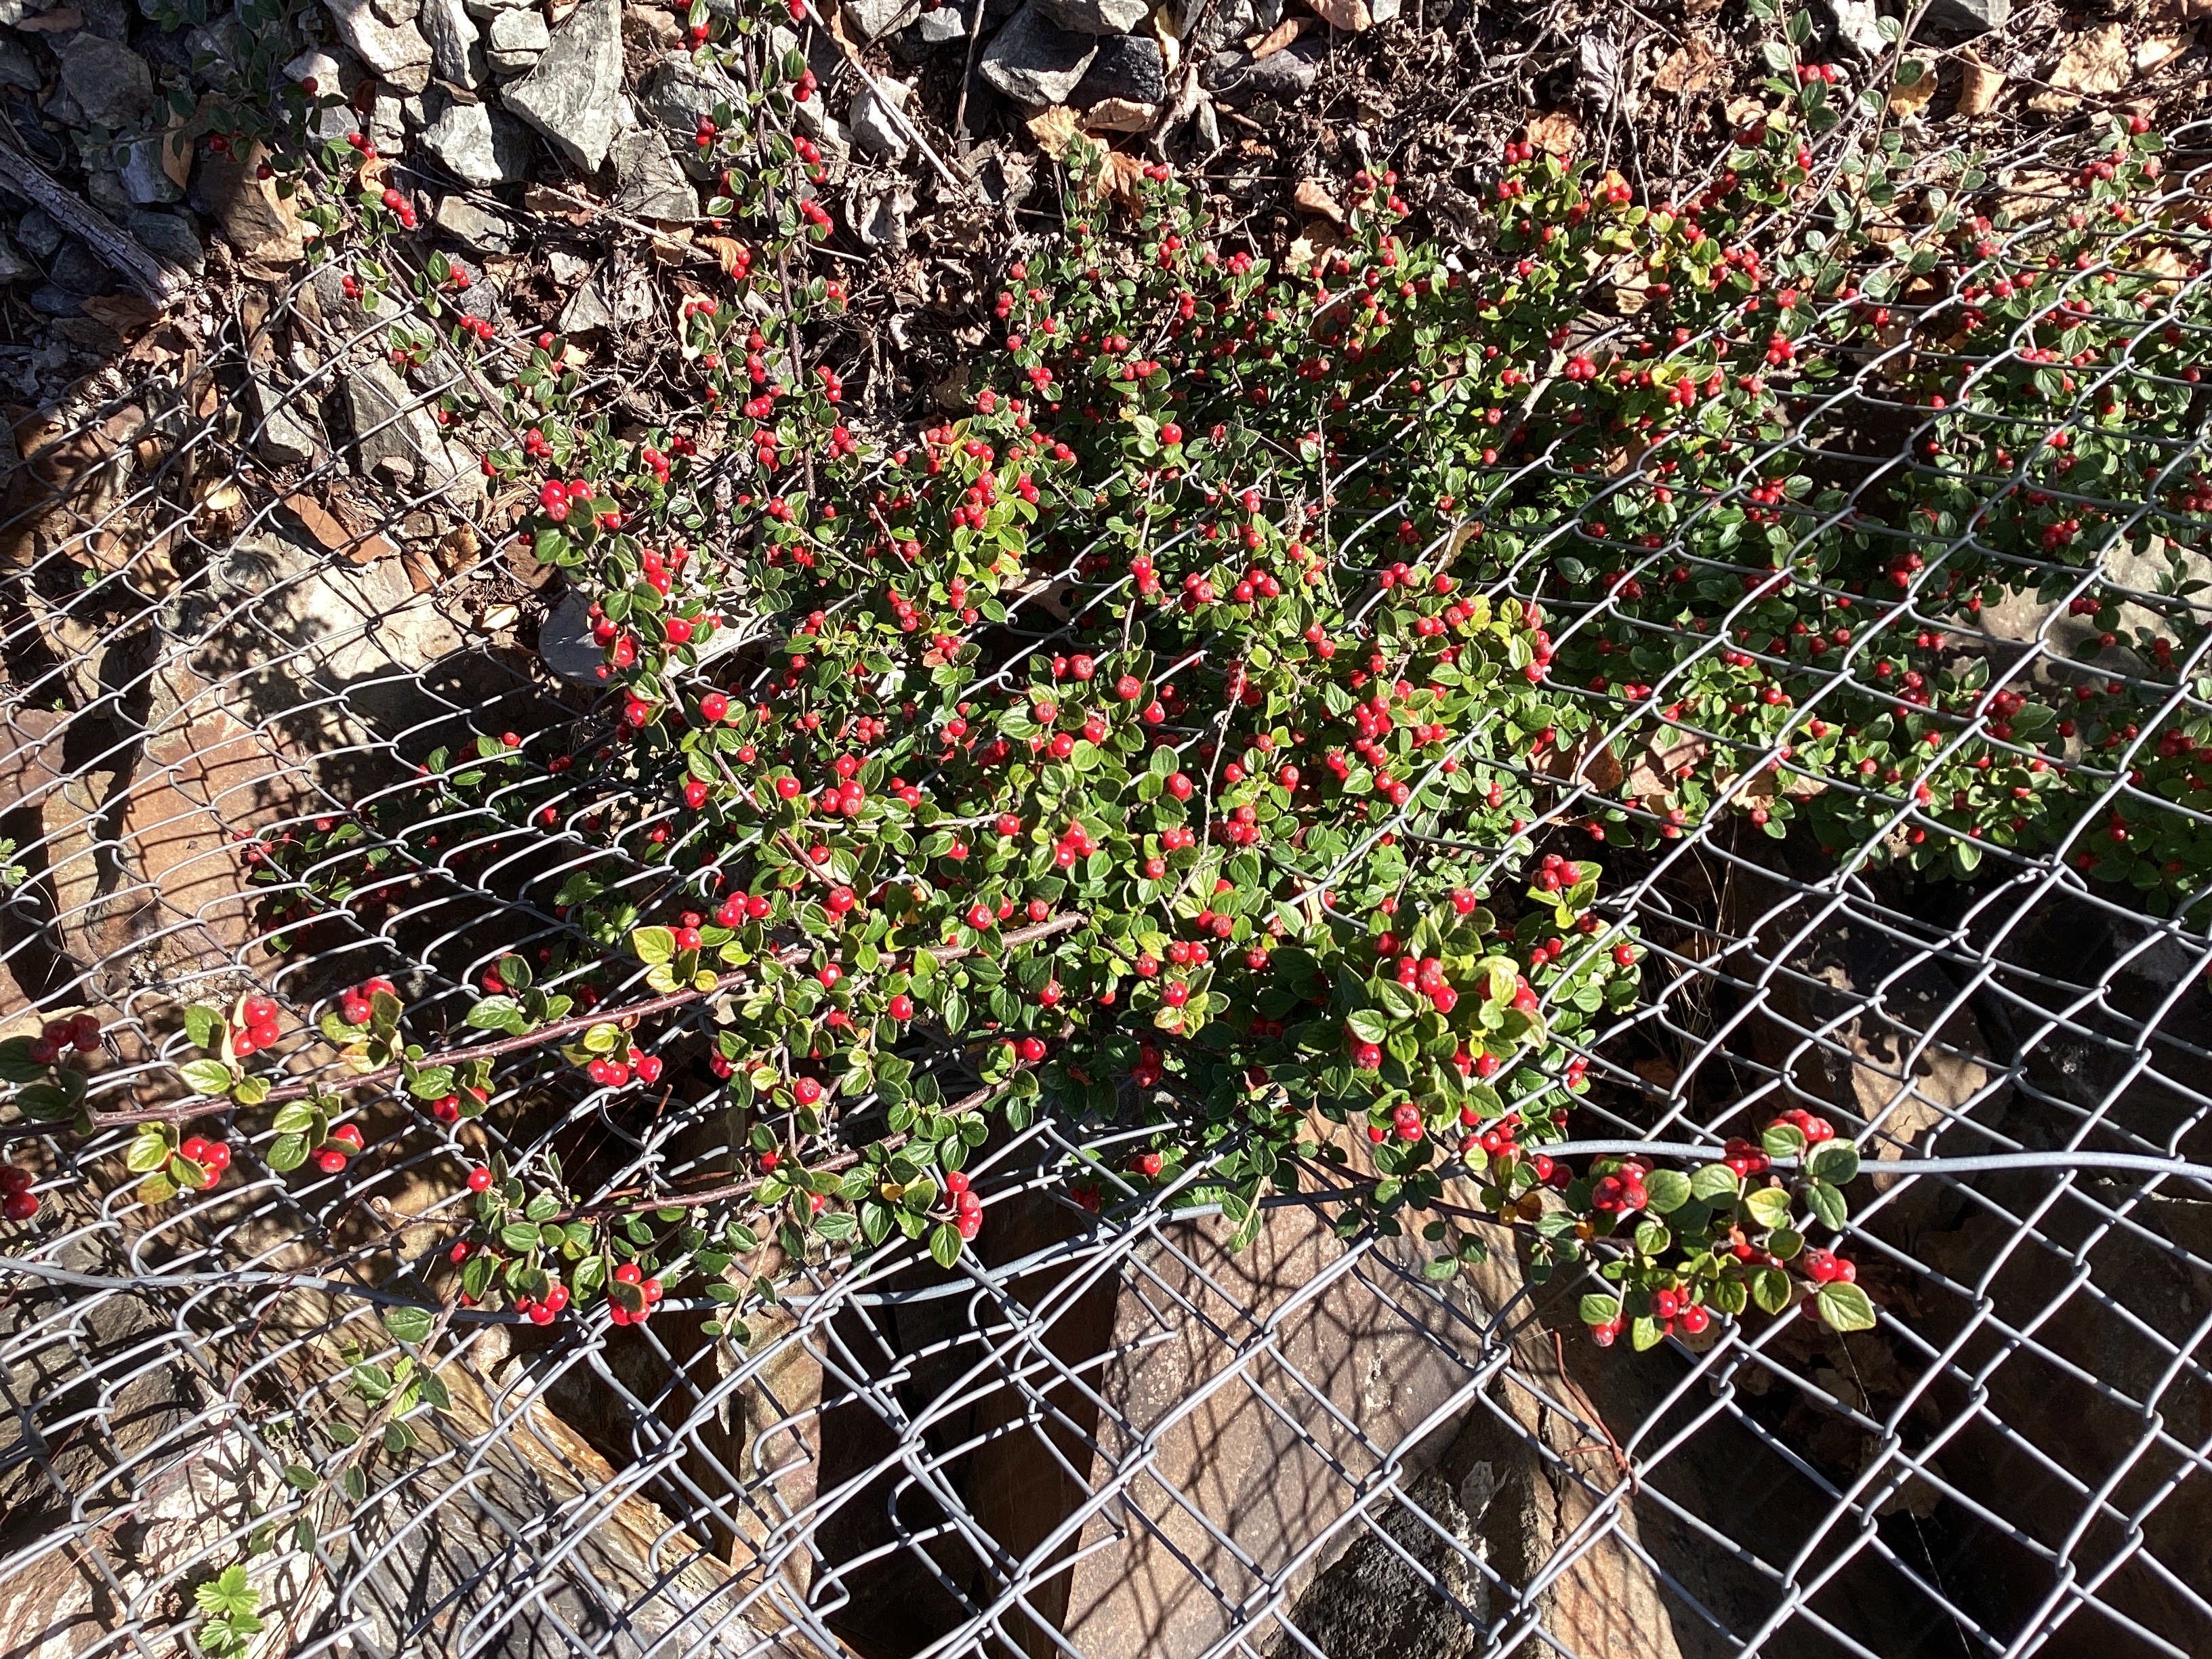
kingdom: Plantae
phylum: Tracheophyta
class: Magnoliopsida
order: Rosales
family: Rosaceae
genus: Cotoneaster
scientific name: Cotoneaster dielsianus
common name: dielsmispel
